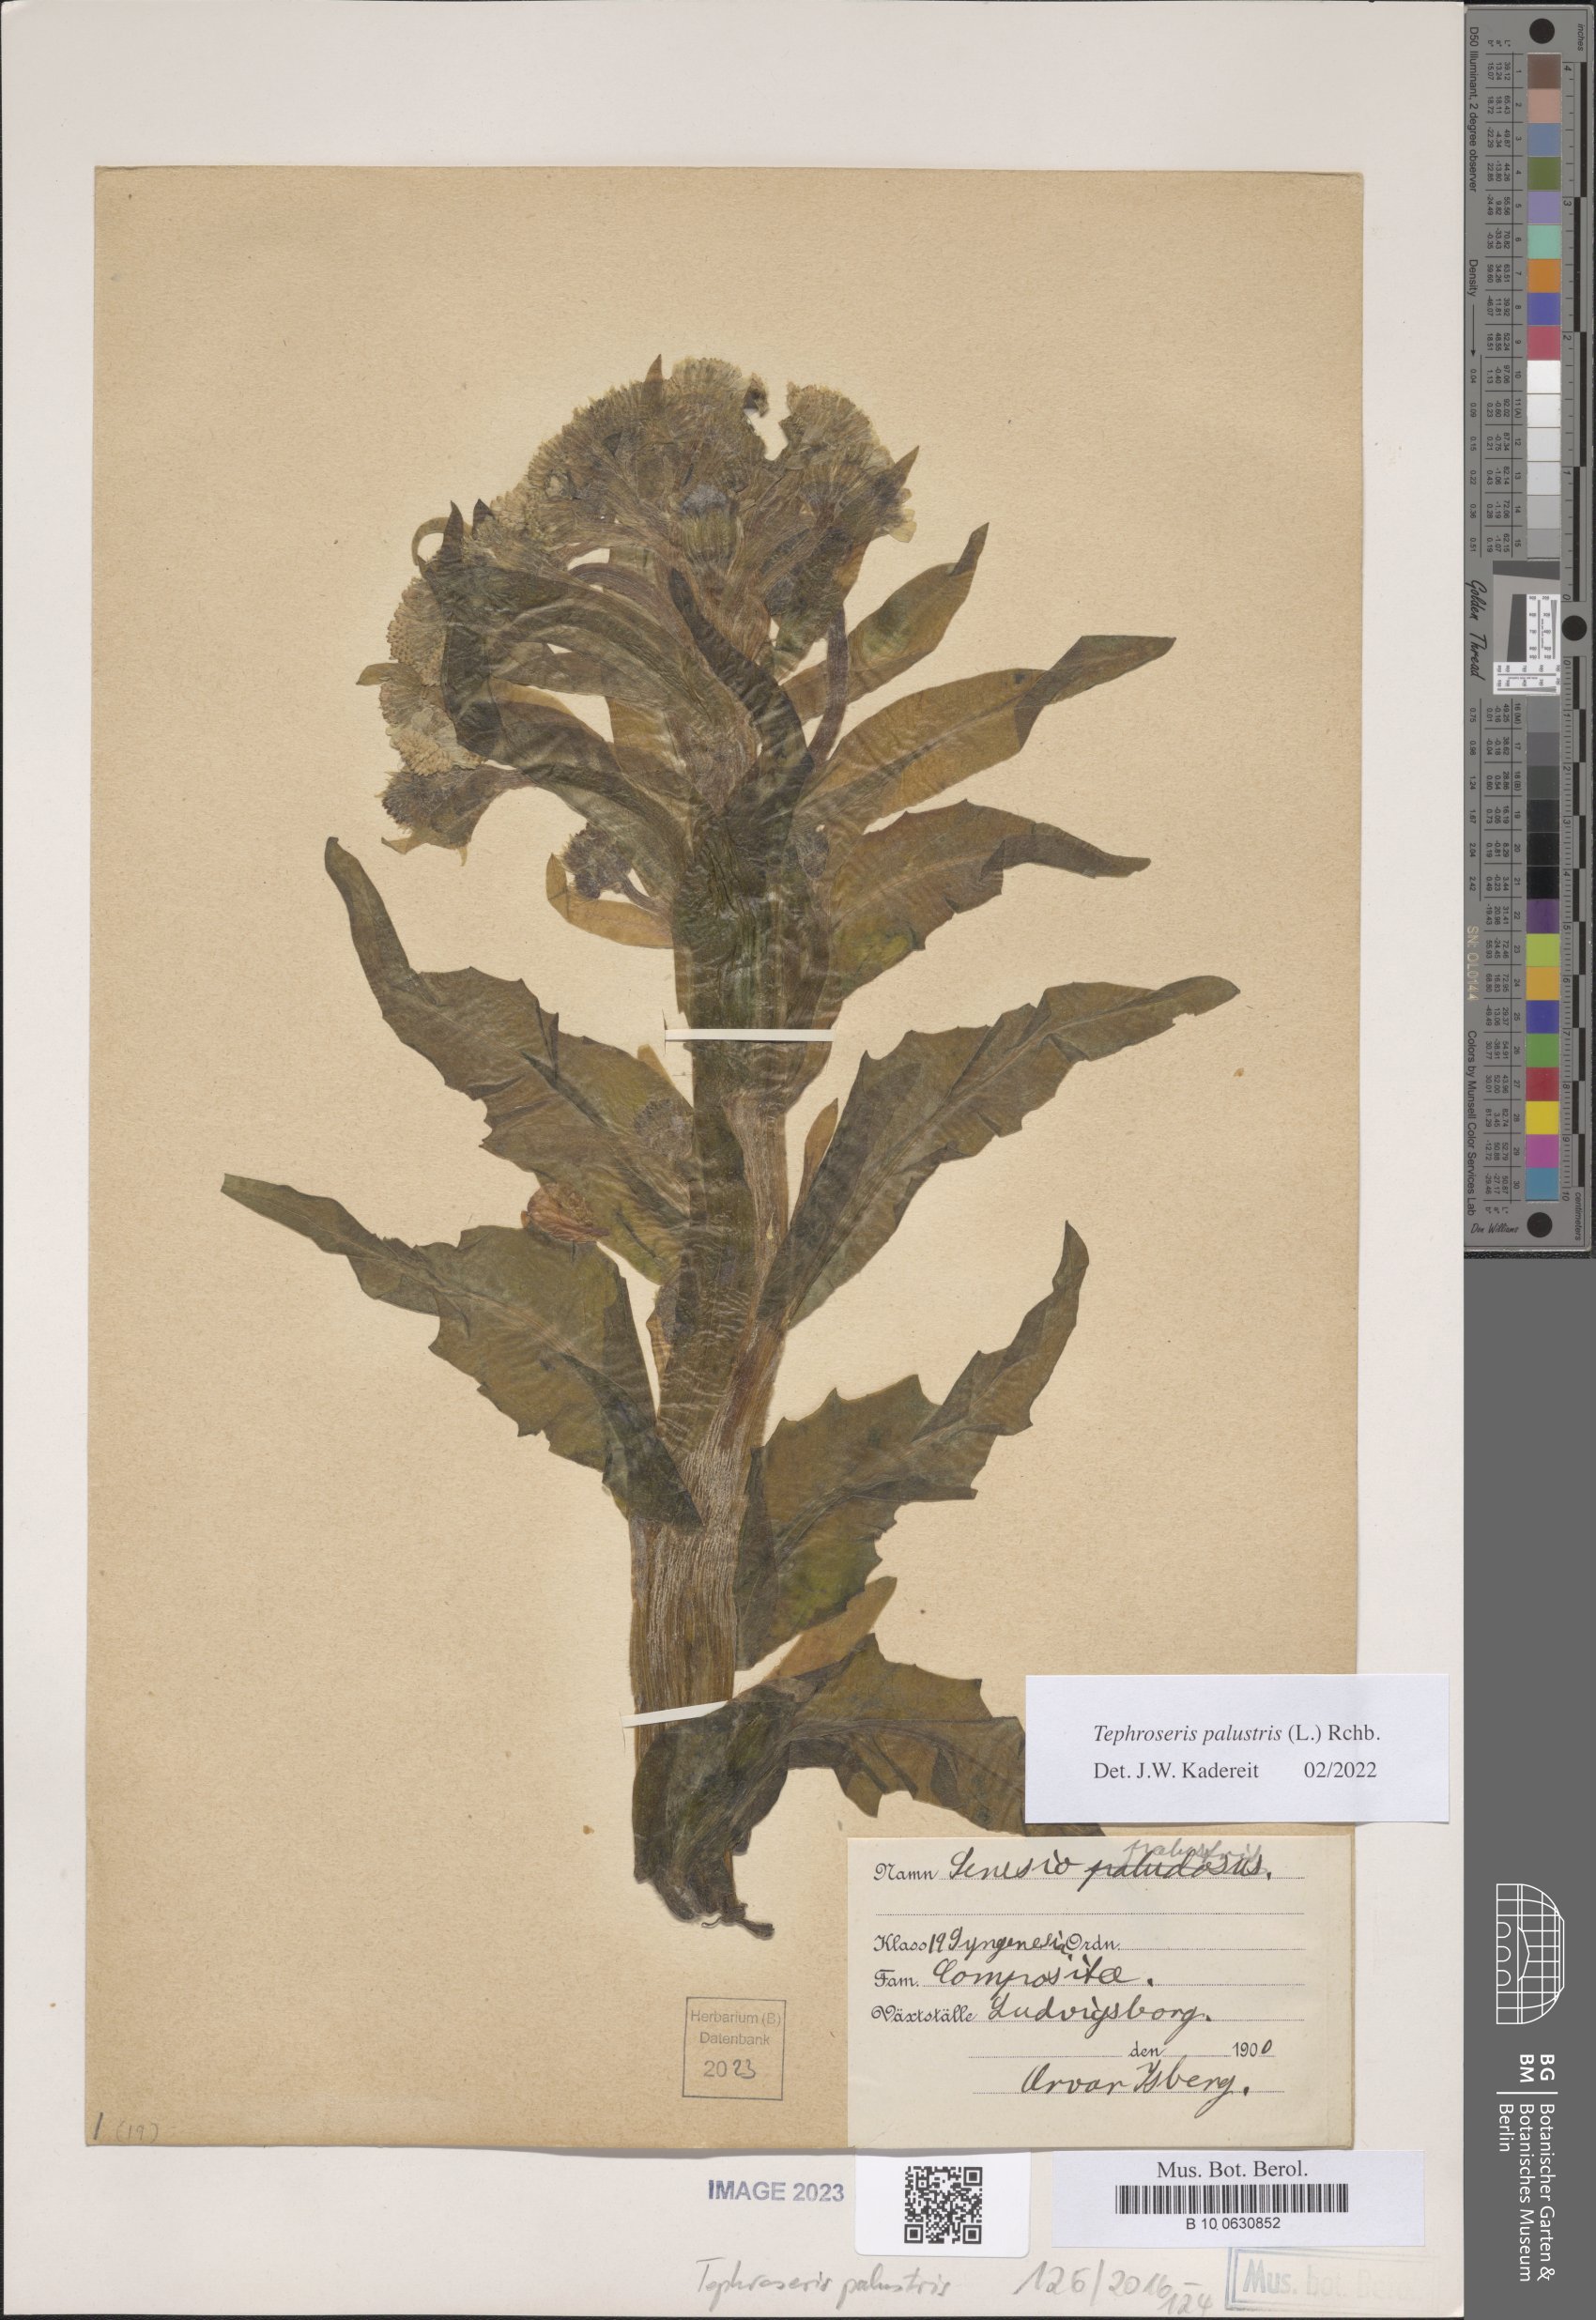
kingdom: Plantae
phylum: Tracheophyta
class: Magnoliopsida
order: Asterales
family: Asteraceae
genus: Tephroseris
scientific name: Tephroseris palustris
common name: Marsh fleawort
